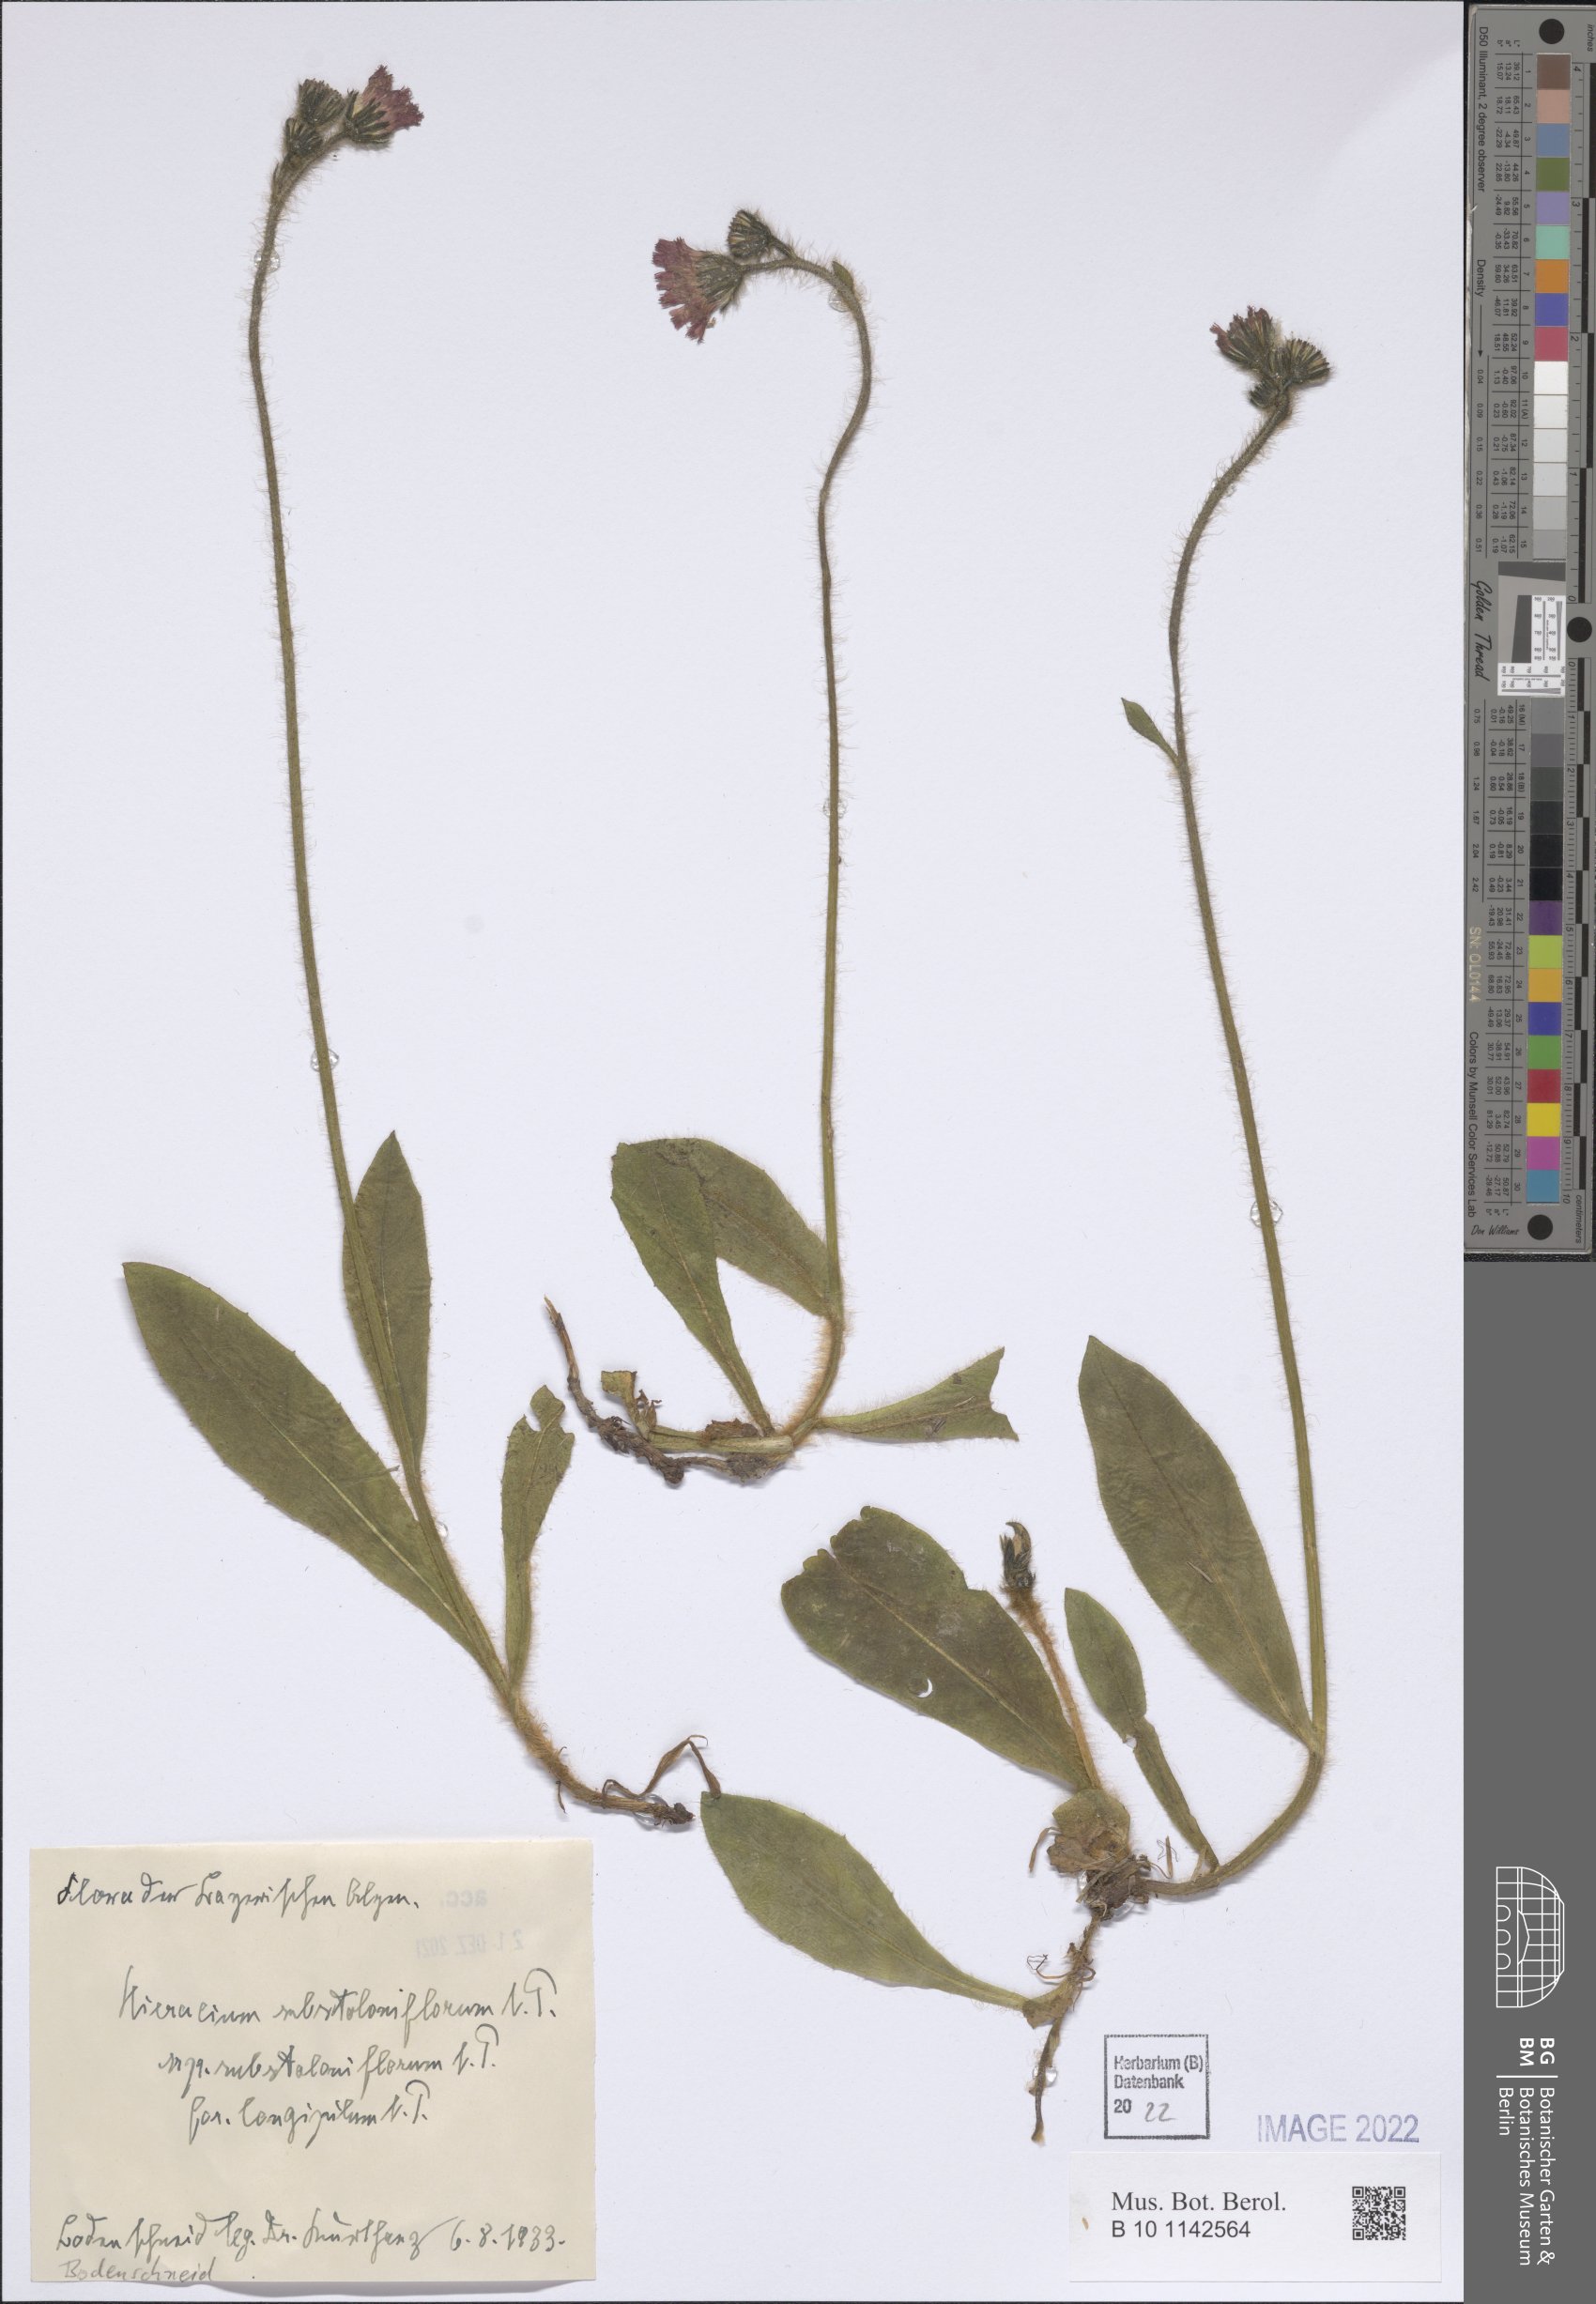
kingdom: Plantae
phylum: Tracheophyta
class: Magnoliopsida
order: Asterales
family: Asteraceae
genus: Pilosella
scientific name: Pilosella aurantiaca
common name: Fox-and-cubs
